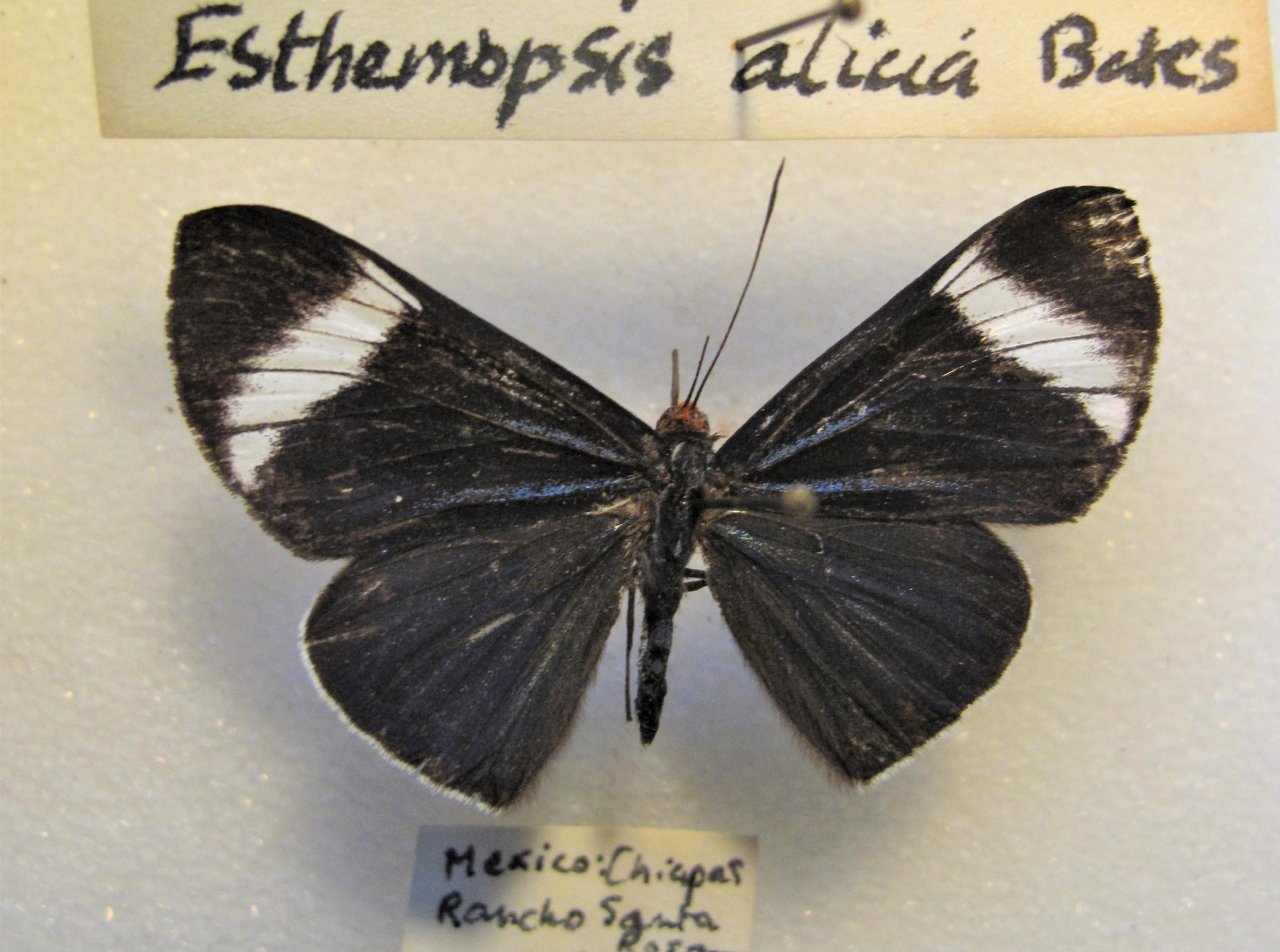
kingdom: Animalia
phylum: Arthropoda
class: Insecta
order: Lepidoptera
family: Lycaenidae
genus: Esthemopsis
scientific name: Esthemopsis alicia
